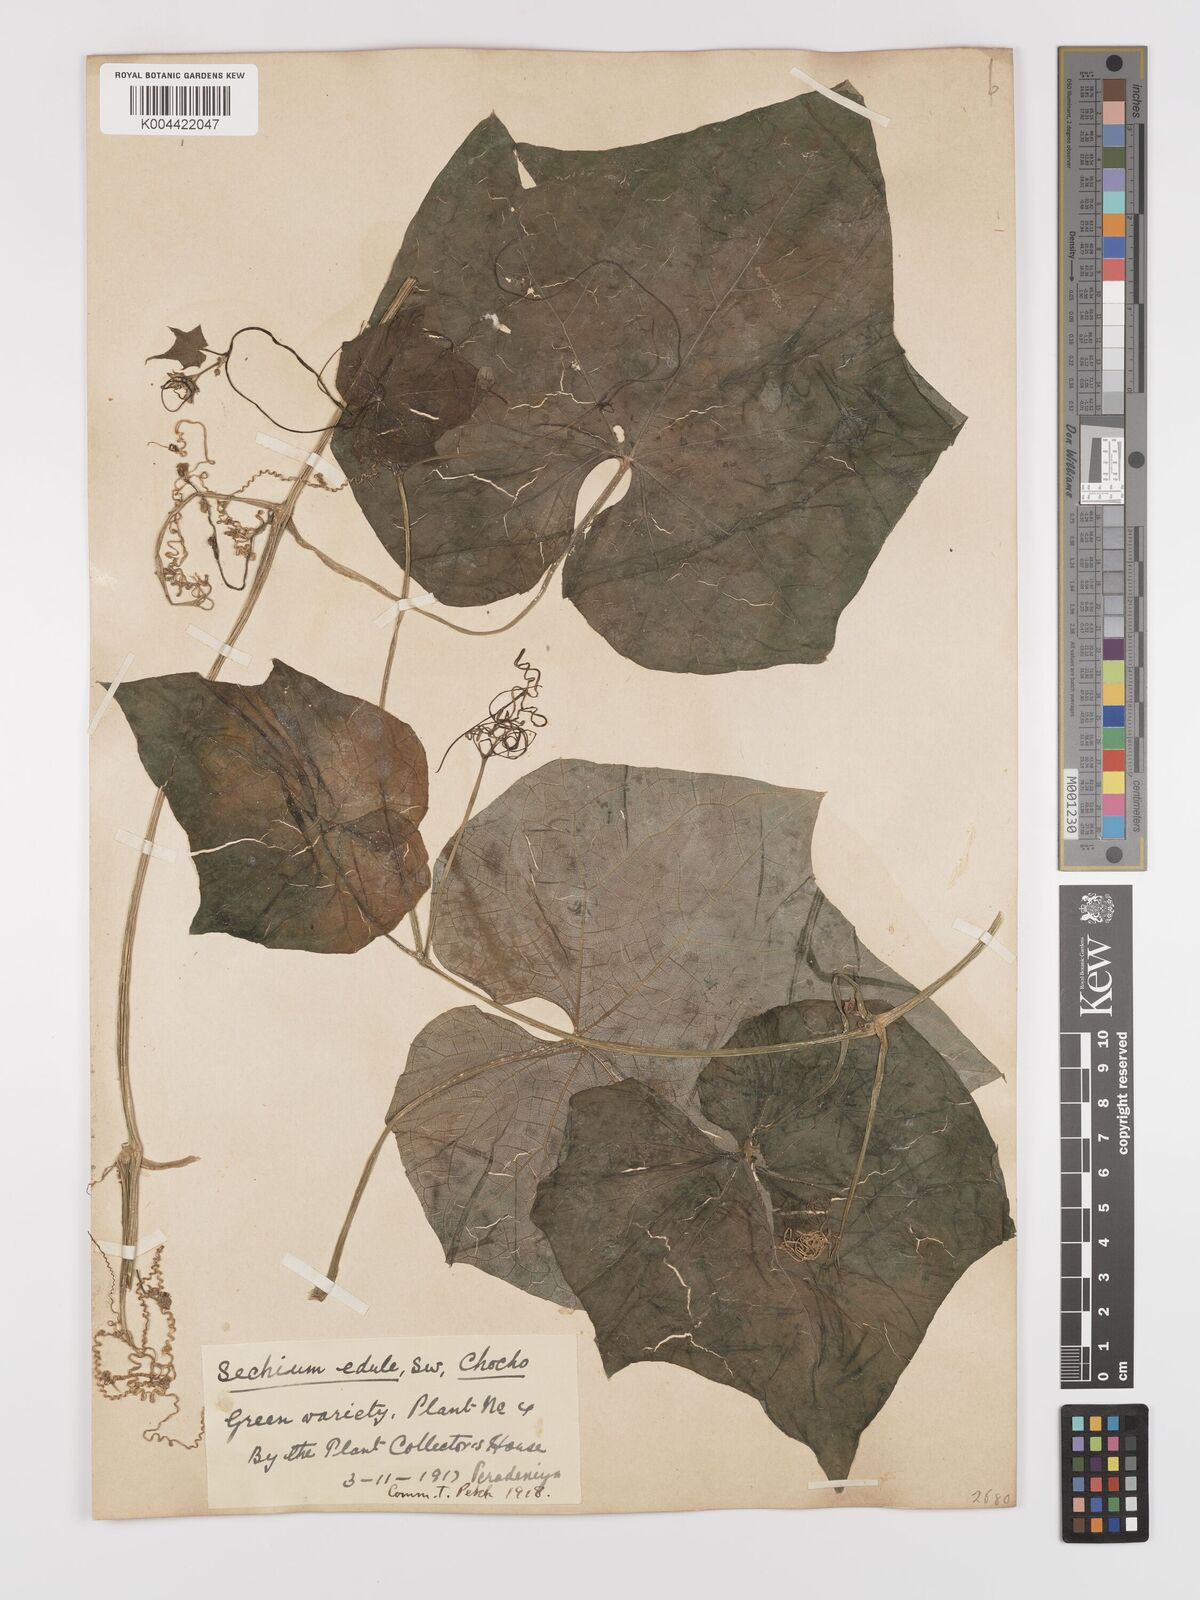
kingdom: Plantae
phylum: Tracheophyta
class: Magnoliopsida
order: Cucurbitales
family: Cucurbitaceae
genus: Sechium
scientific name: Sechium edule
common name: Chayote
